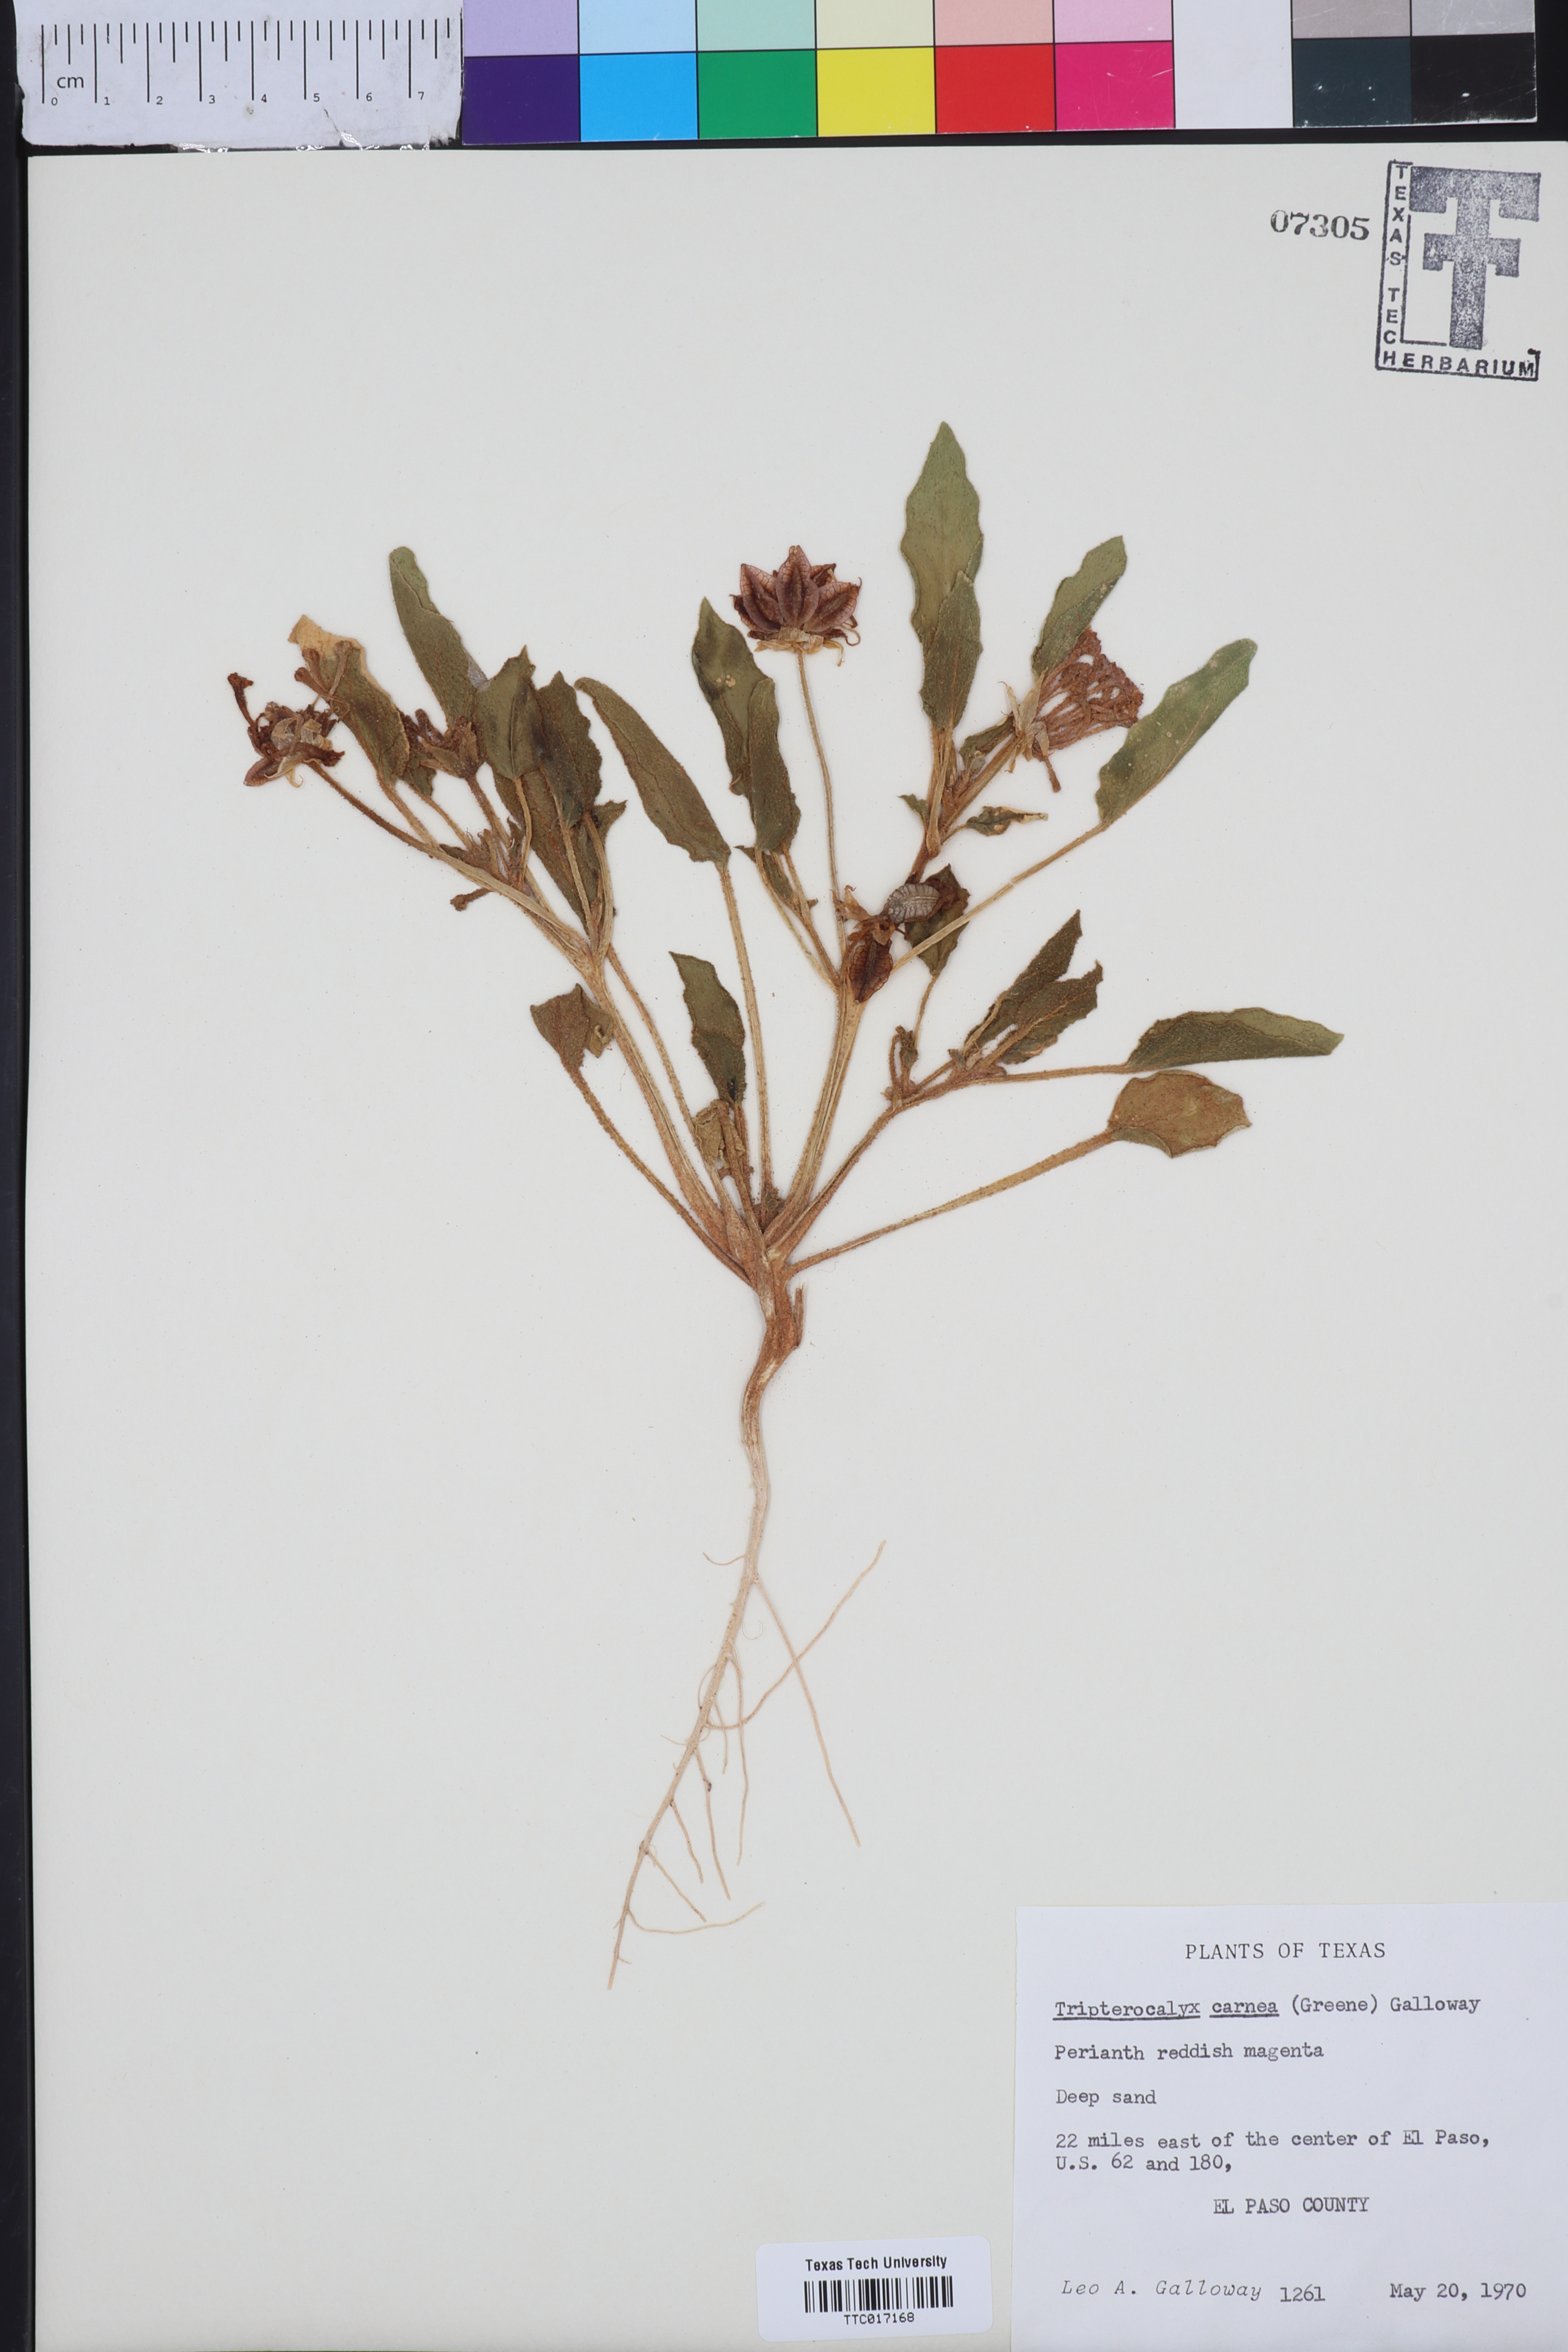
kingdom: Plantae
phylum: Tracheophyta
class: Magnoliopsida
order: Caryophyllales
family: Nyctaginaceae
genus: Tripterocalyx
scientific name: Tripterocalyx carneus
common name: Winged sandpuffs
